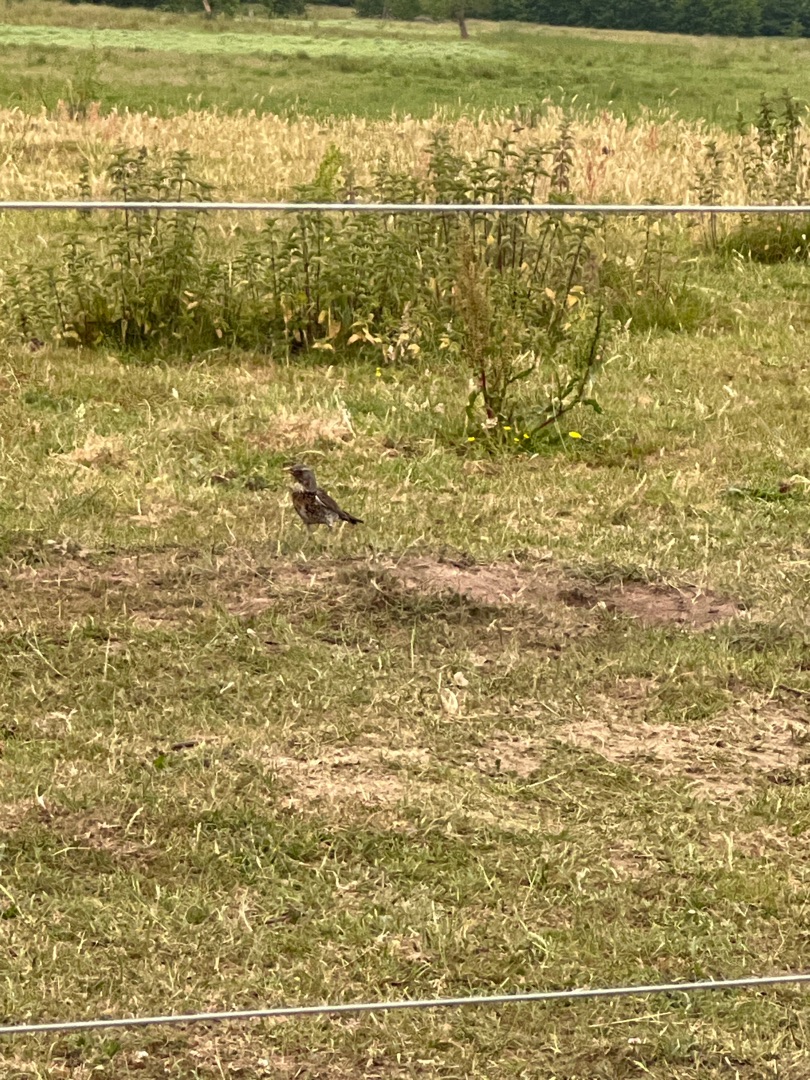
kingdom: Animalia
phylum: Chordata
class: Aves
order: Passeriformes
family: Turdidae
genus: Turdus
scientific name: Turdus pilaris
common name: Sjagger
